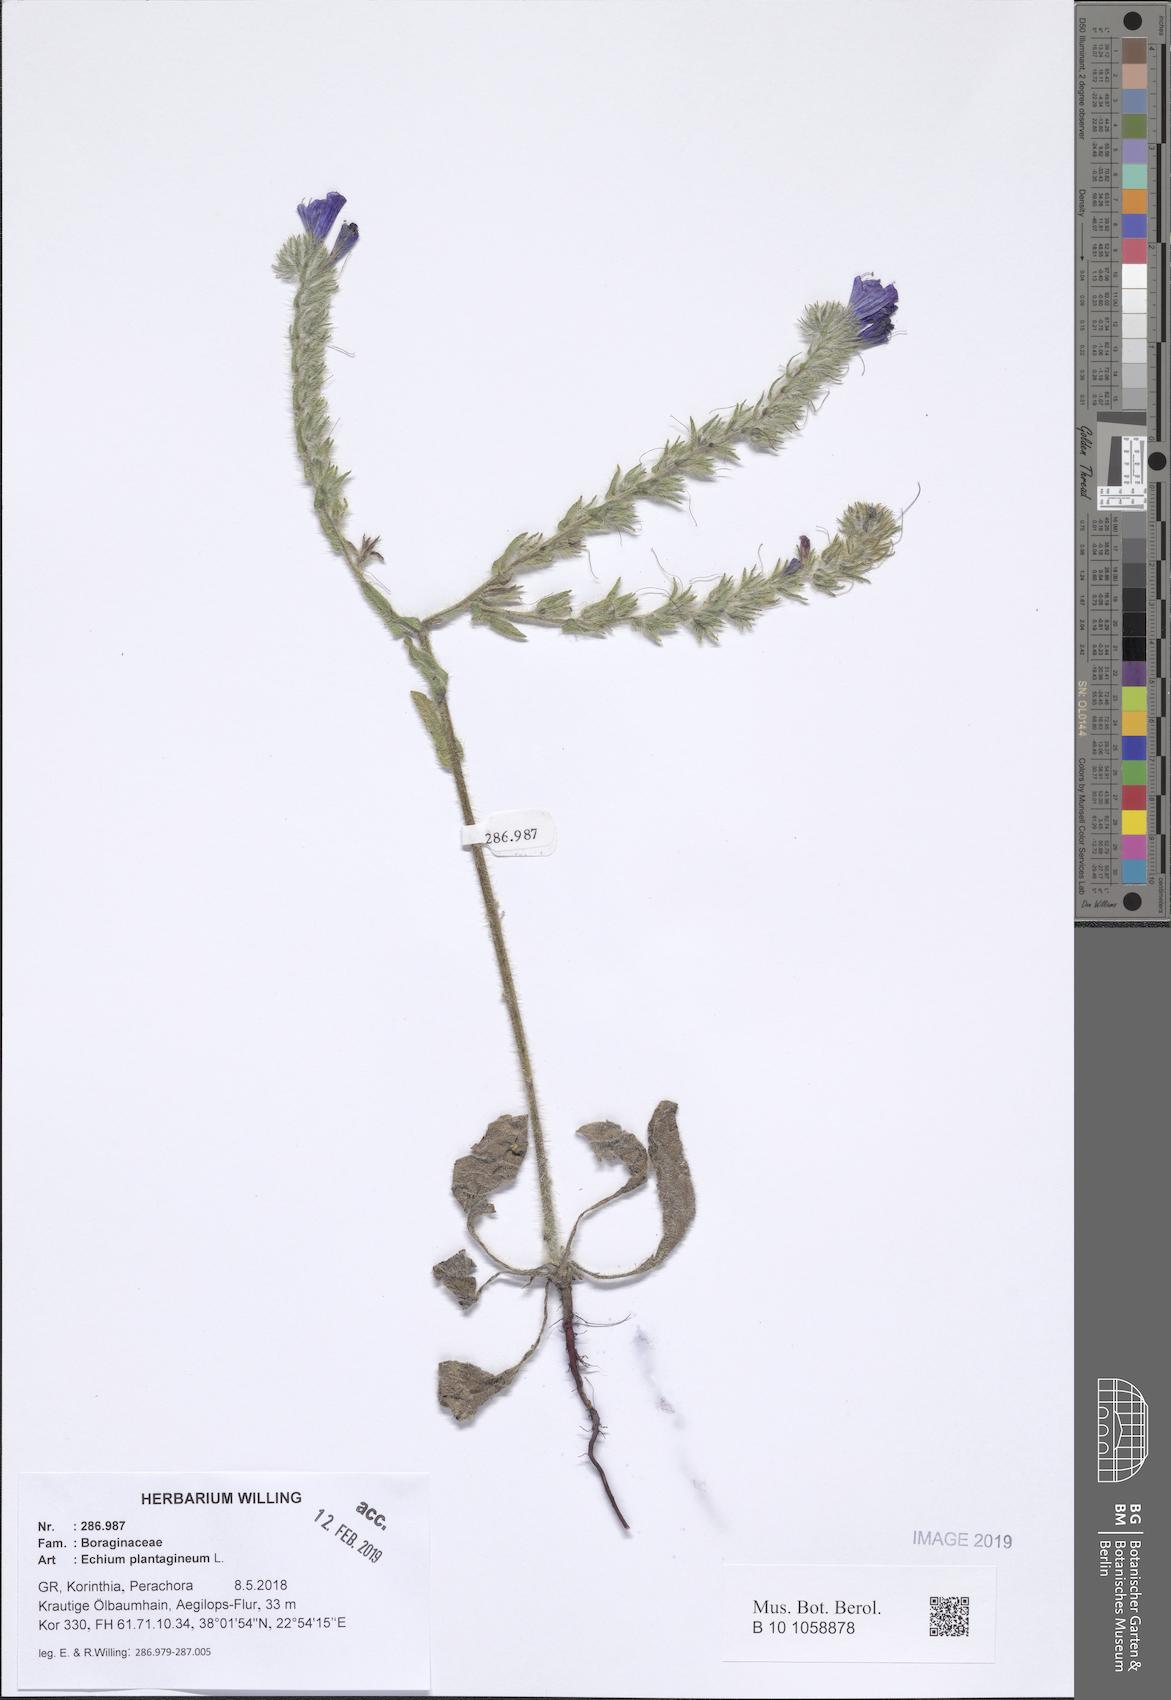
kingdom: Plantae
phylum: Tracheophyta
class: Magnoliopsida
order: Boraginales
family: Boraginaceae
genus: Echium
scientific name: Echium plantagineum
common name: Purple viper's-bugloss
